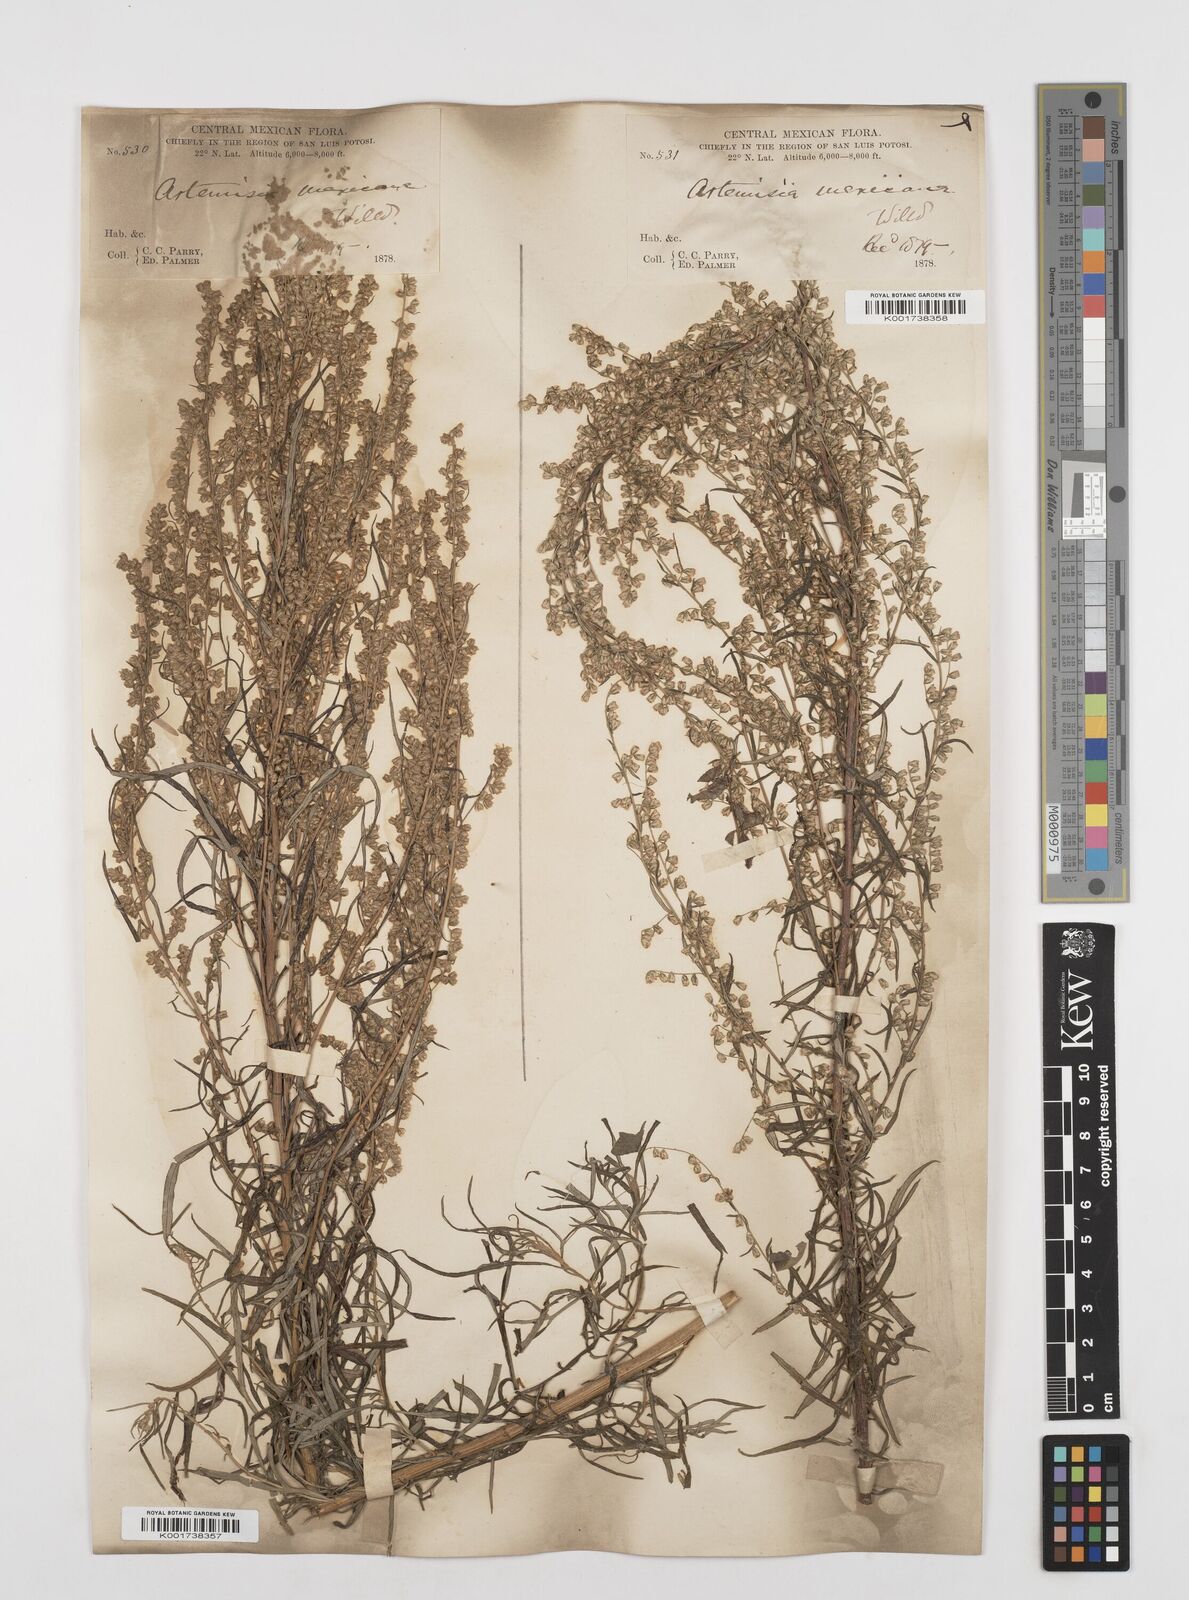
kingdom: Plantae
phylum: Tracheophyta
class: Magnoliopsida
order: Asterales
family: Asteraceae
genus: Artemisia
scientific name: Artemisia ludoviciana
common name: Western mugwort
